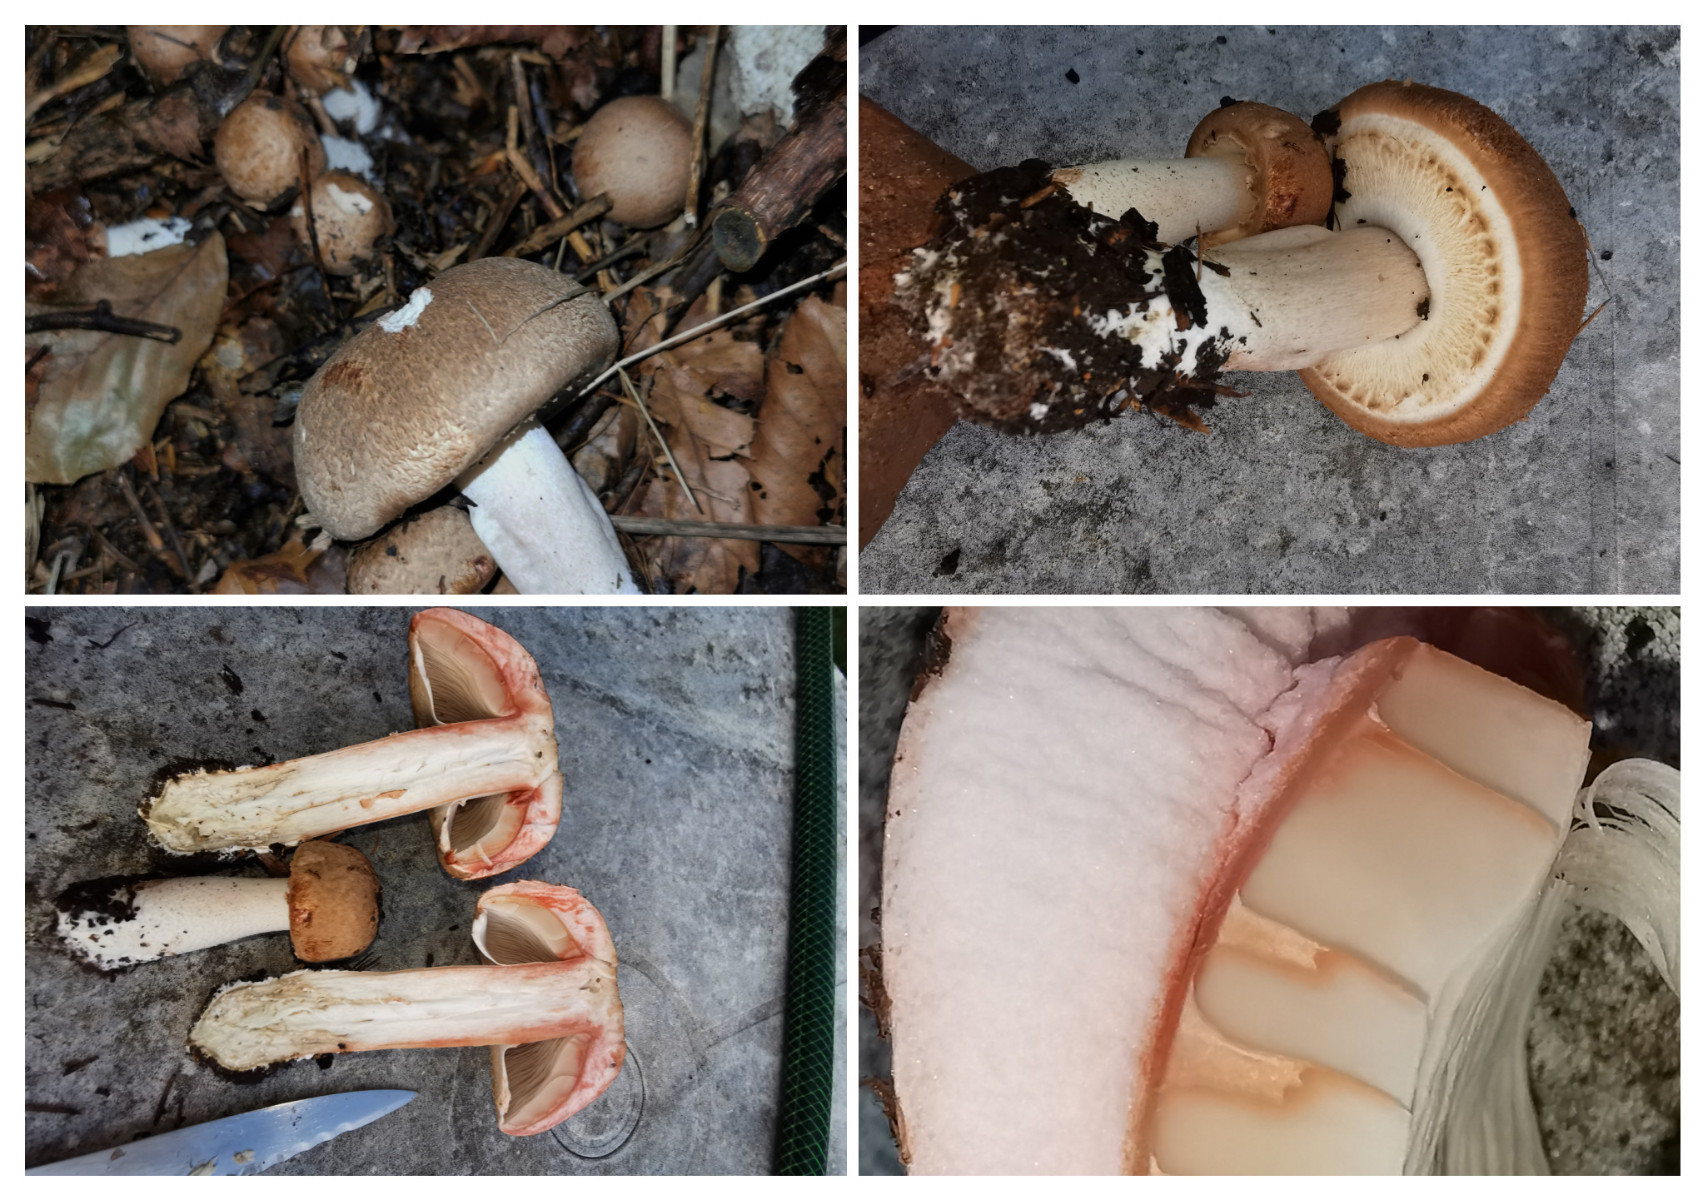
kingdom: Fungi
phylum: Basidiomycota
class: Agaricomycetes
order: Agaricales
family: Agaricaceae
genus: Agaricus
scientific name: Agaricus
